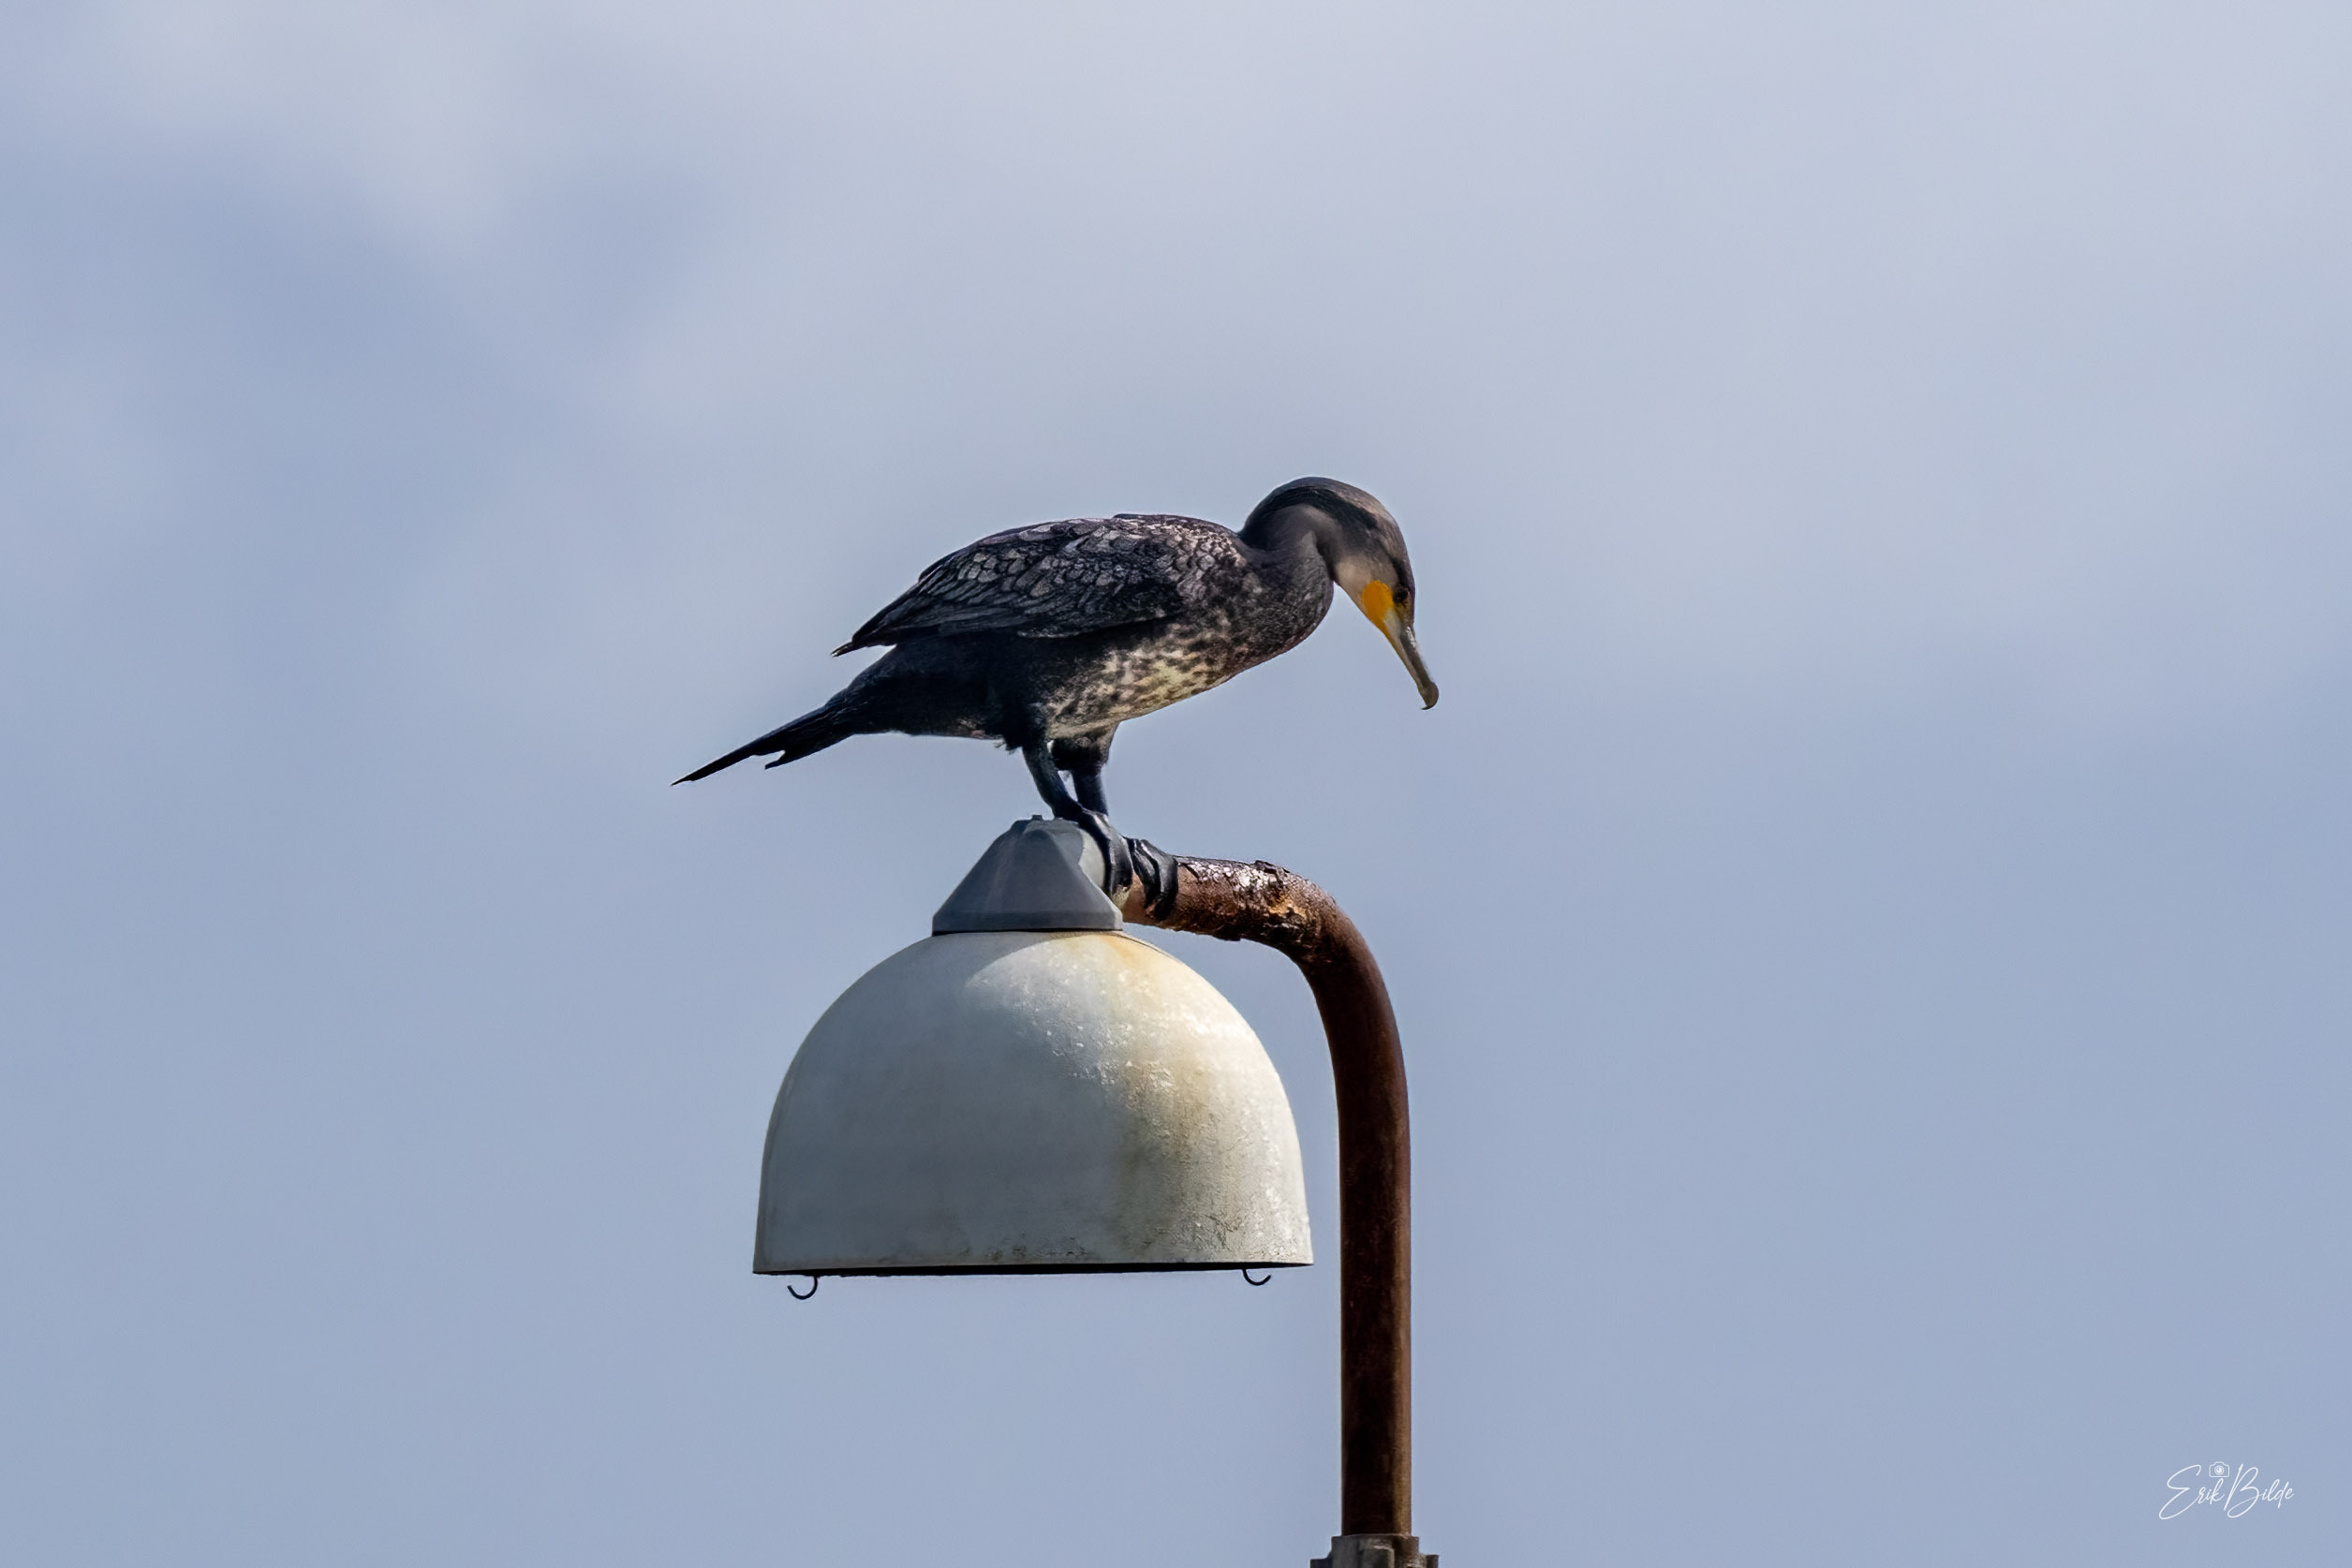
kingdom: Animalia
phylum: Chordata
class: Aves
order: Suliformes
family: Phalacrocoracidae
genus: Phalacrocorax
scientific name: Phalacrocorax carbo
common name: Skarv
